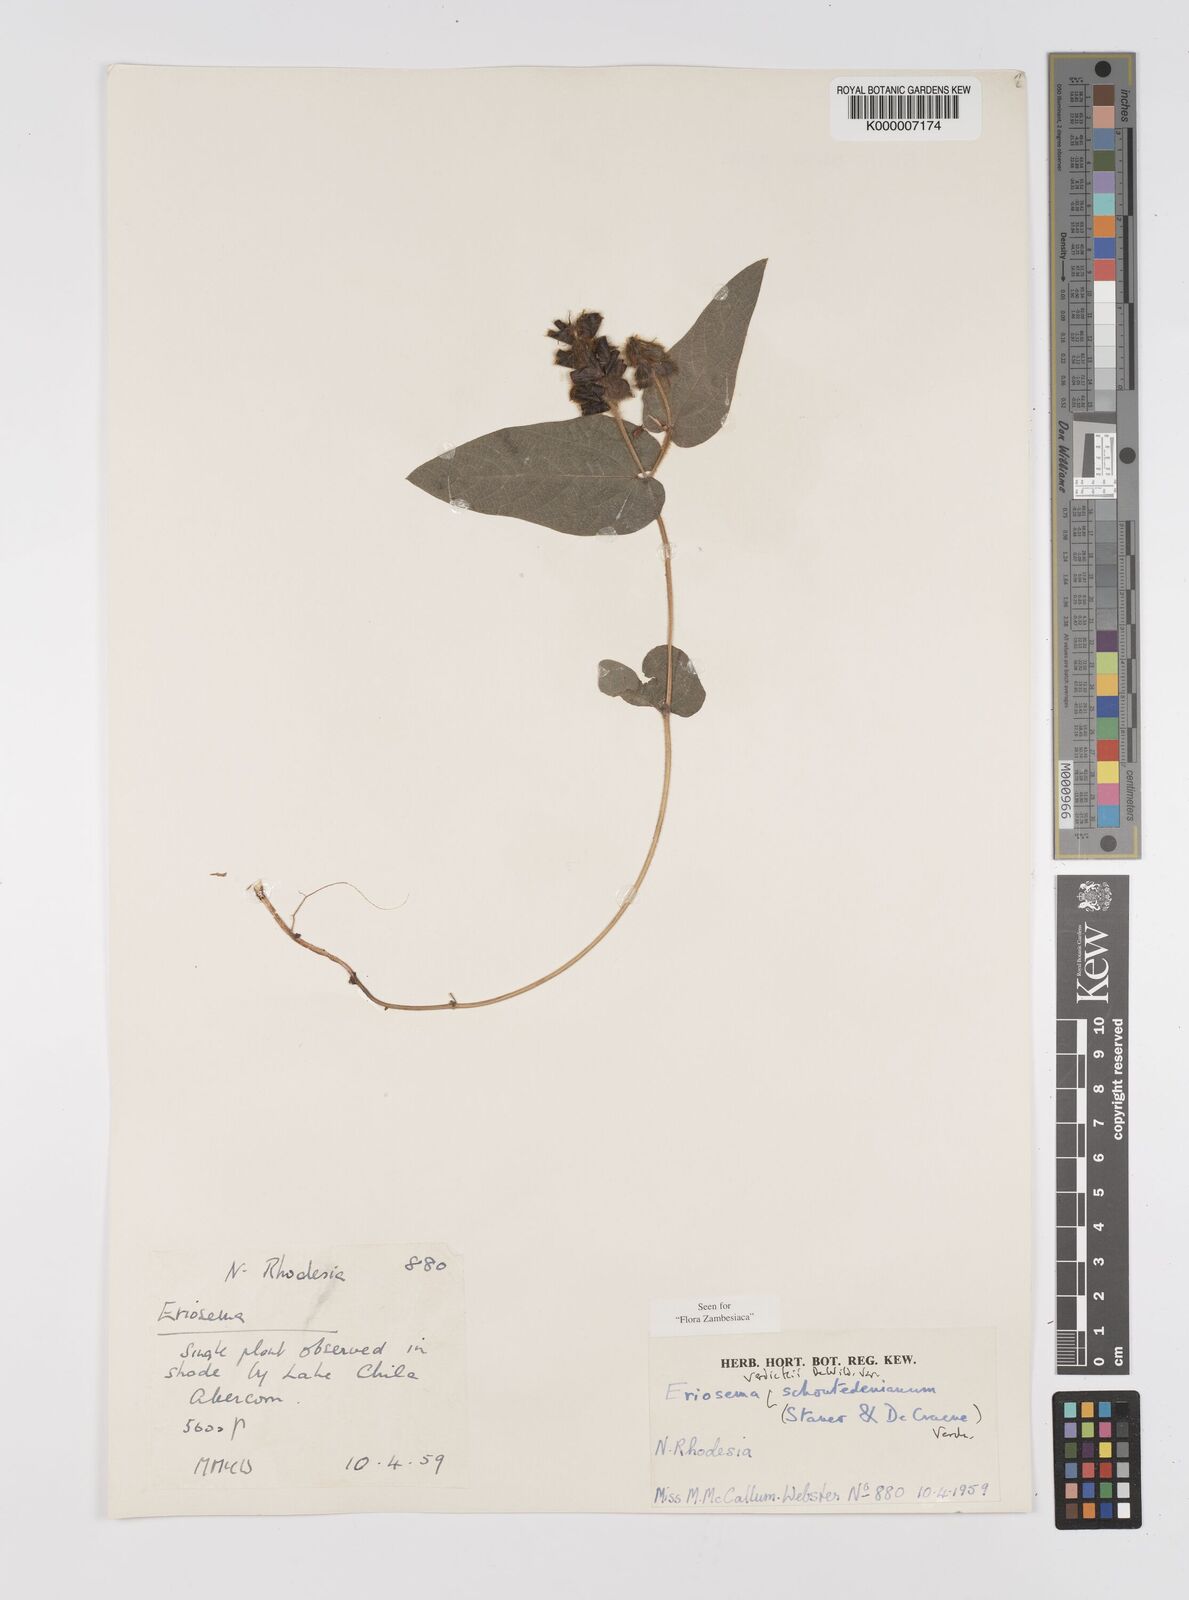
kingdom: Plantae
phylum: Tracheophyta
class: Magnoliopsida
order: Fabales
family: Fabaceae
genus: Eriosema
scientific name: Eriosema verdickii
